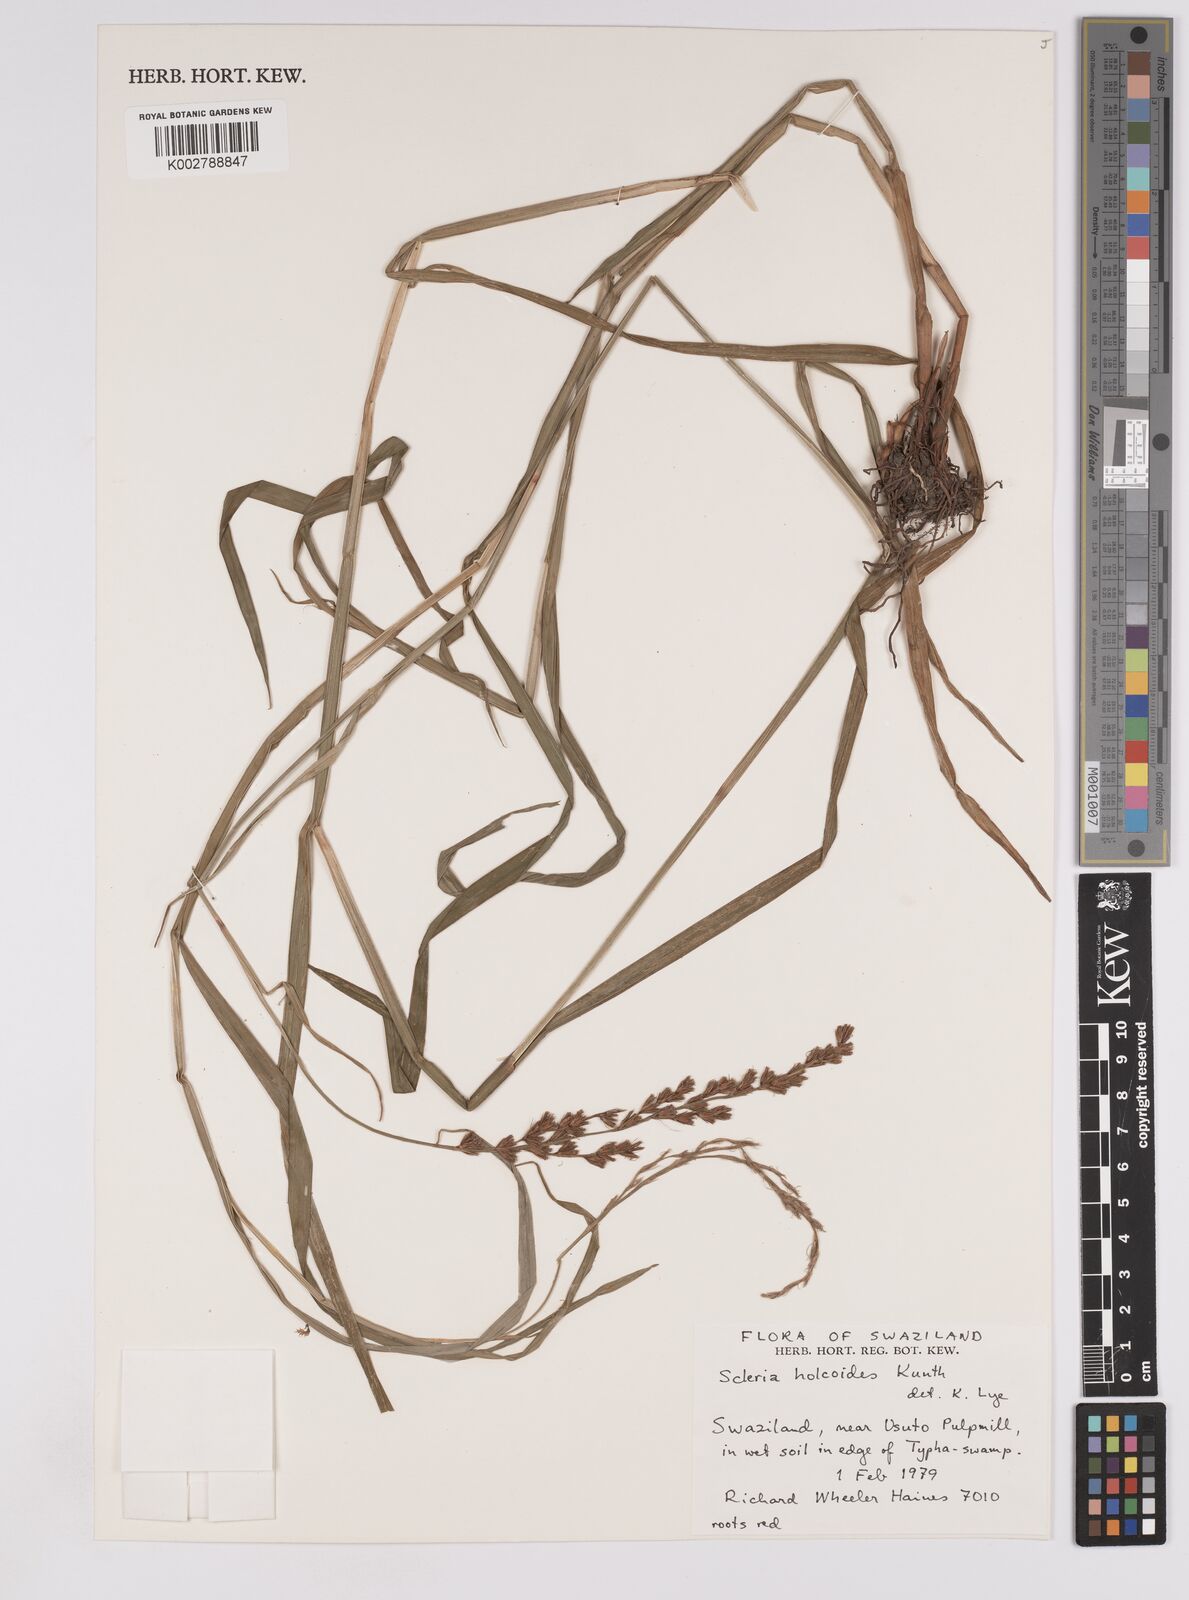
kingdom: Plantae
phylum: Tracheophyta
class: Liliopsida
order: Poales
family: Cyperaceae
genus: Scleria
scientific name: Scleria dregeana
